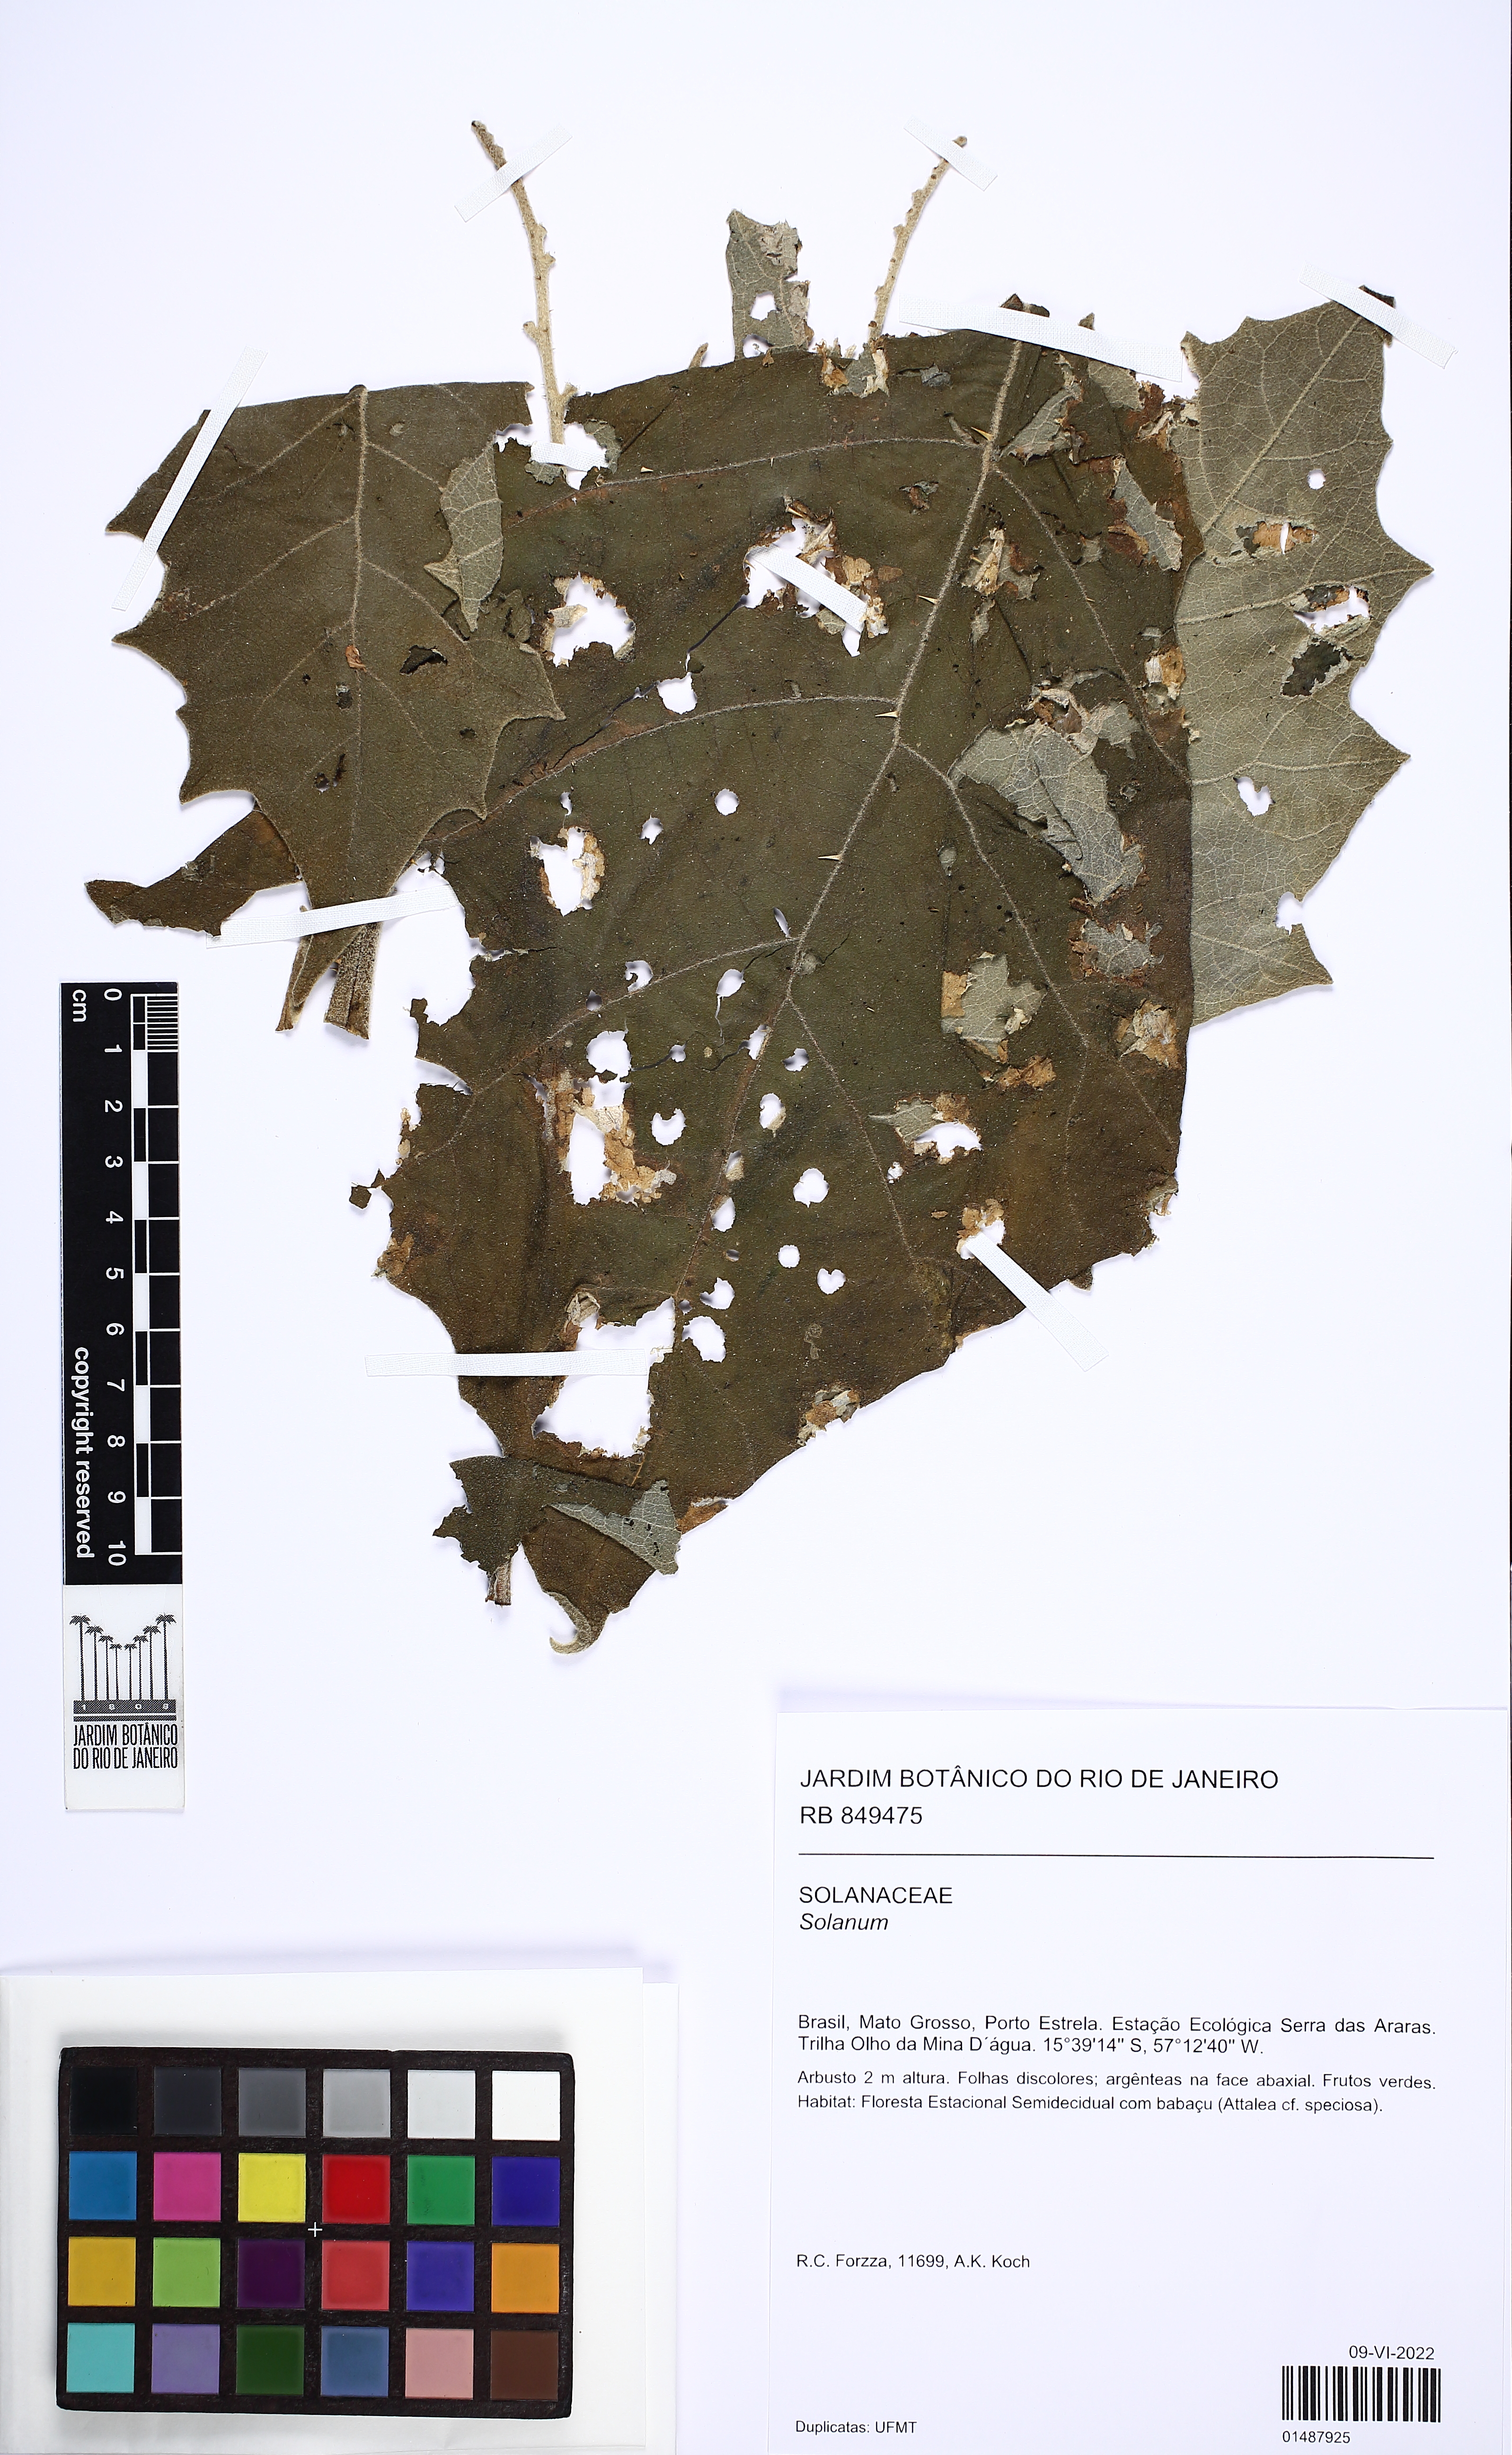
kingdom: Plantae
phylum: Tracheophyta
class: Magnoliopsida
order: Solanales
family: Solanaceae
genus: Solanum
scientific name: Solanum
